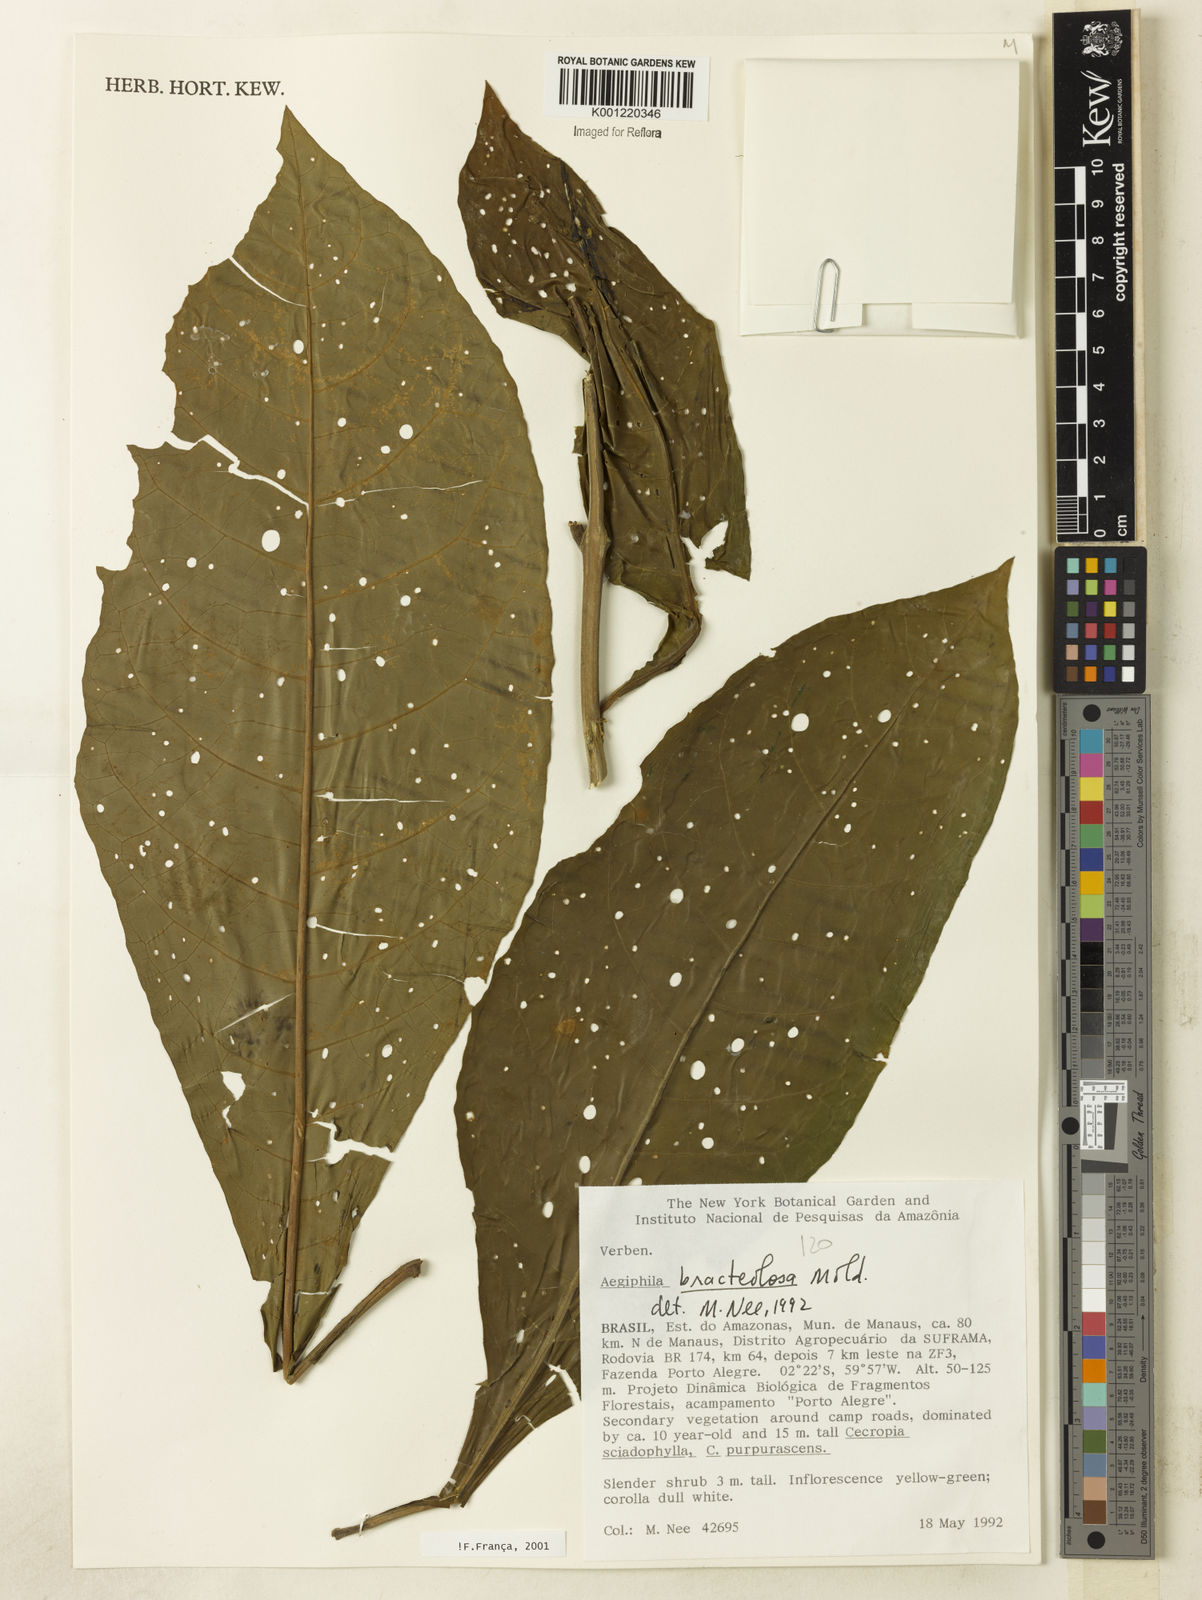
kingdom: Plantae
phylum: Tracheophyta
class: Magnoliopsida
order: Lamiales
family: Lamiaceae
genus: Aegiphila
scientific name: Aegiphila bracteolosa
